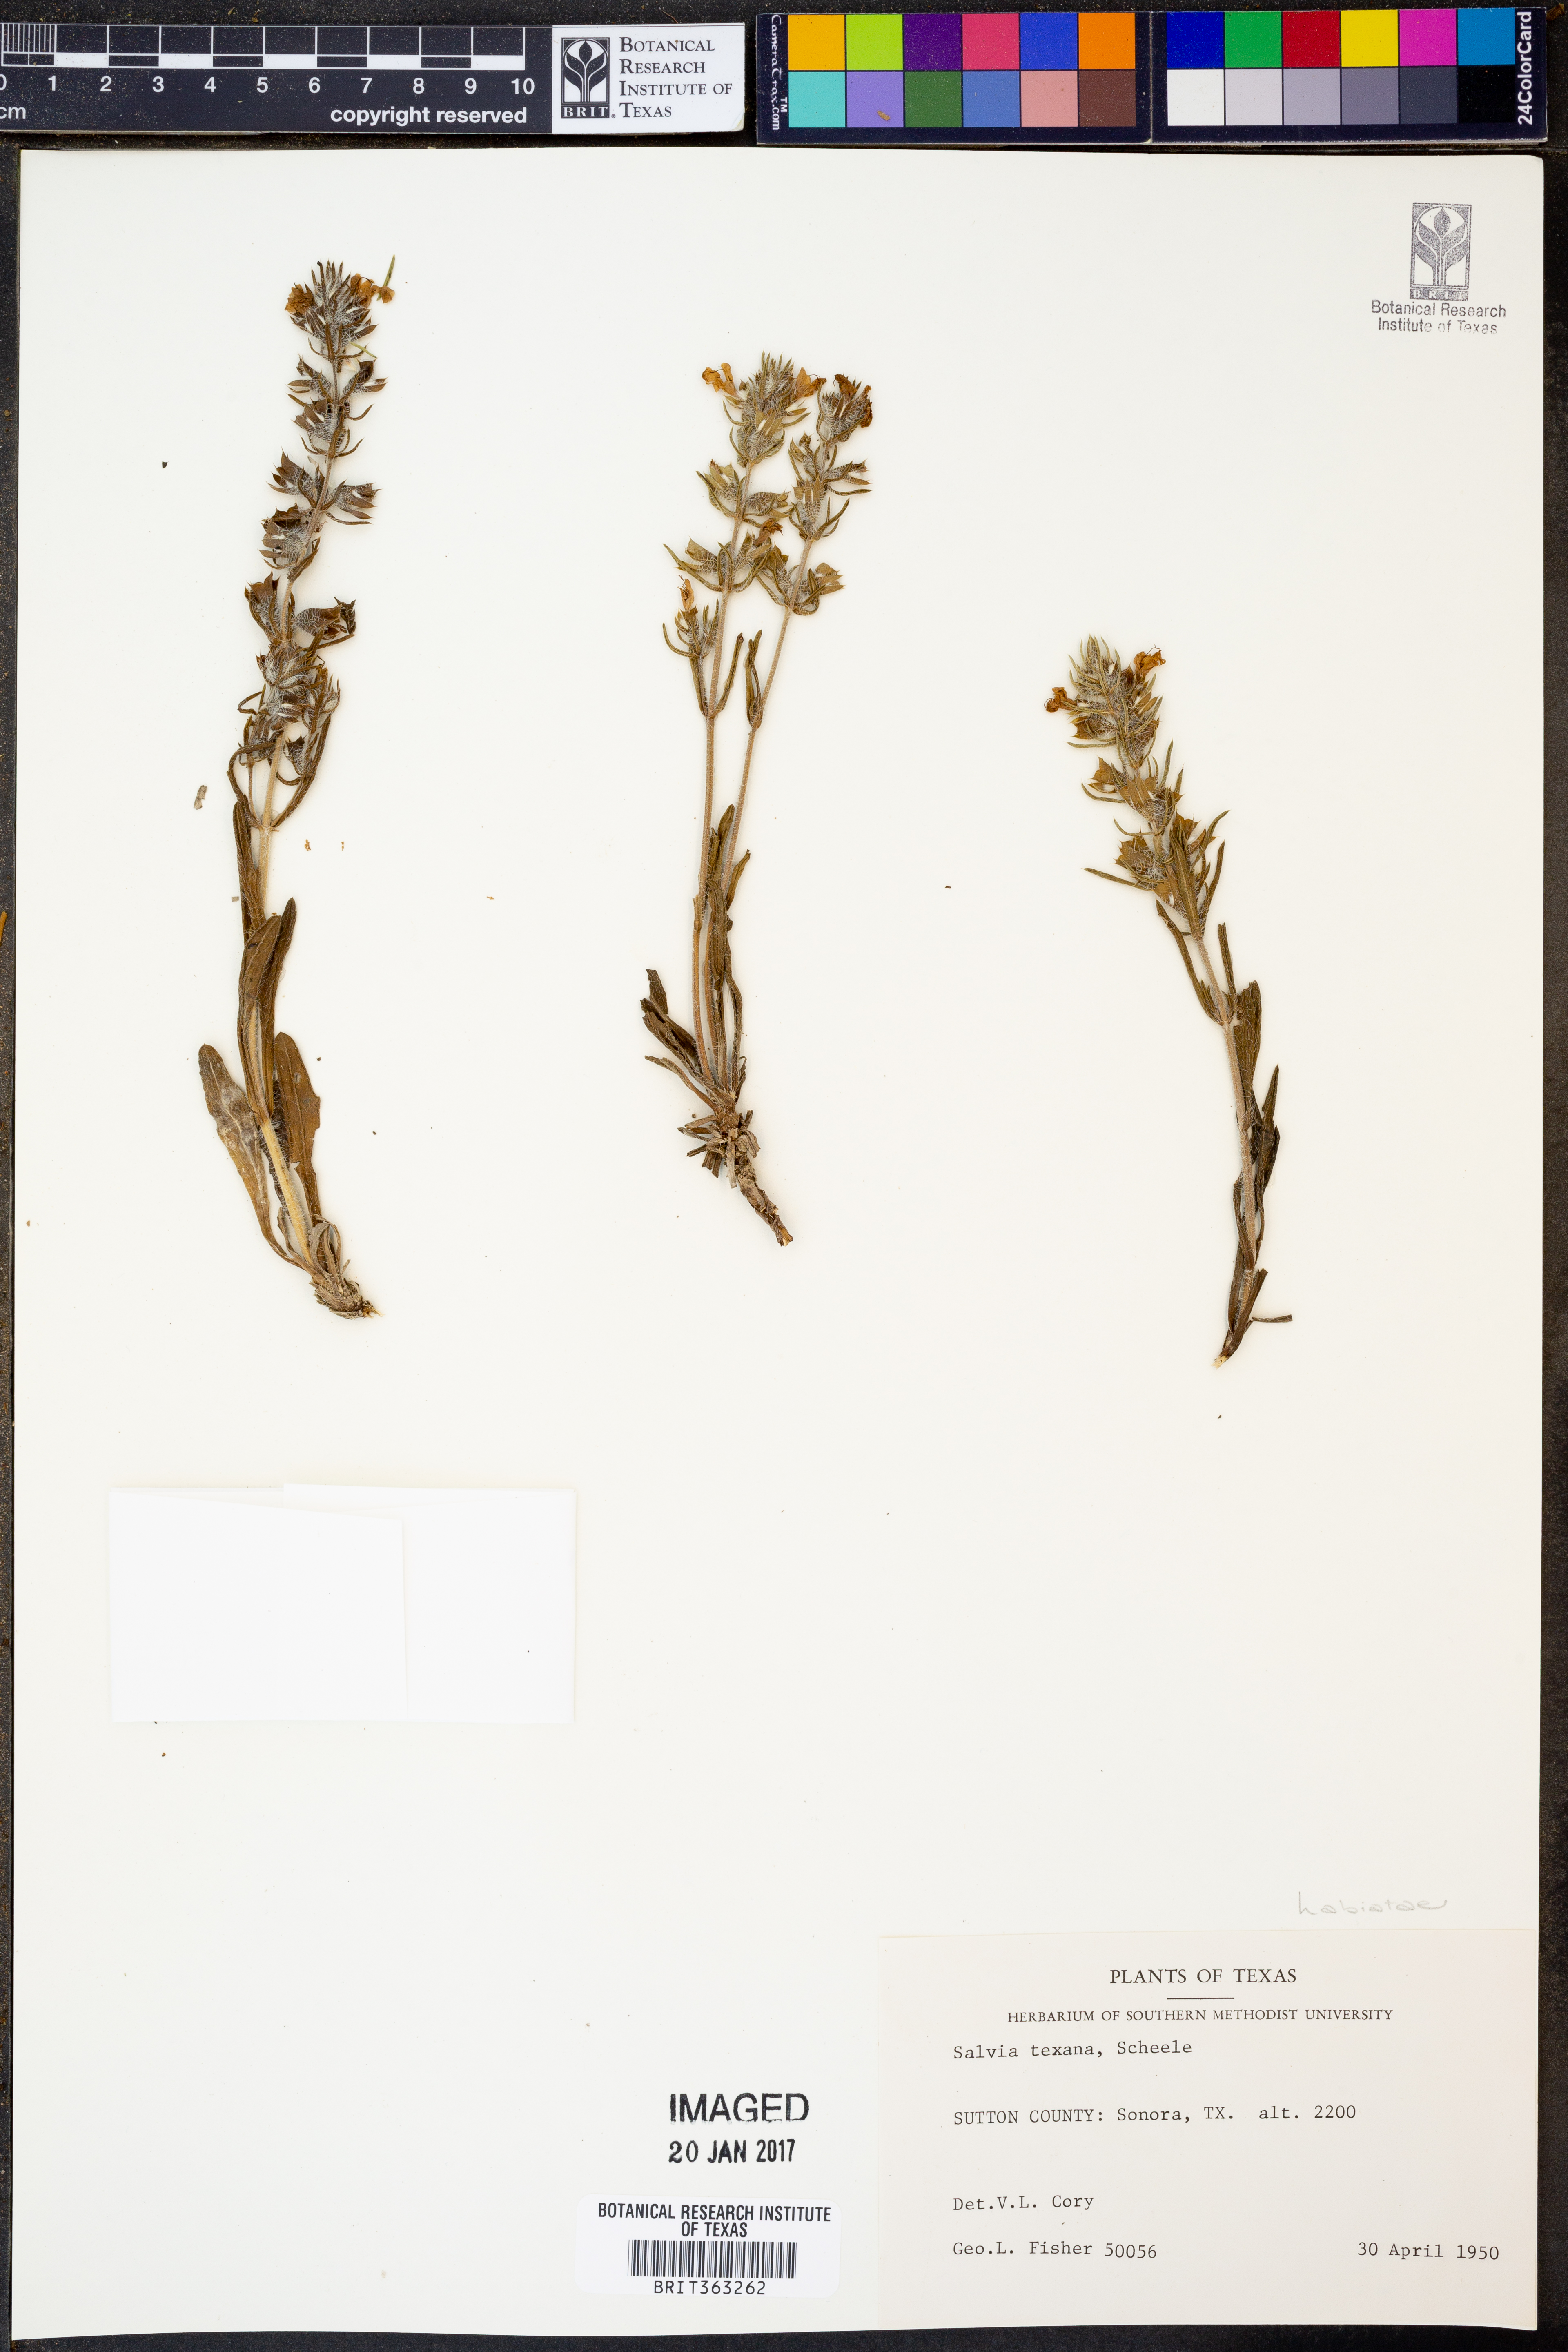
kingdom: Plantae
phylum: Tracheophyta
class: Magnoliopsida
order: Lamiales
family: Lamiaceae
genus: Salvia
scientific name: Salvia texana
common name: Texas sage
